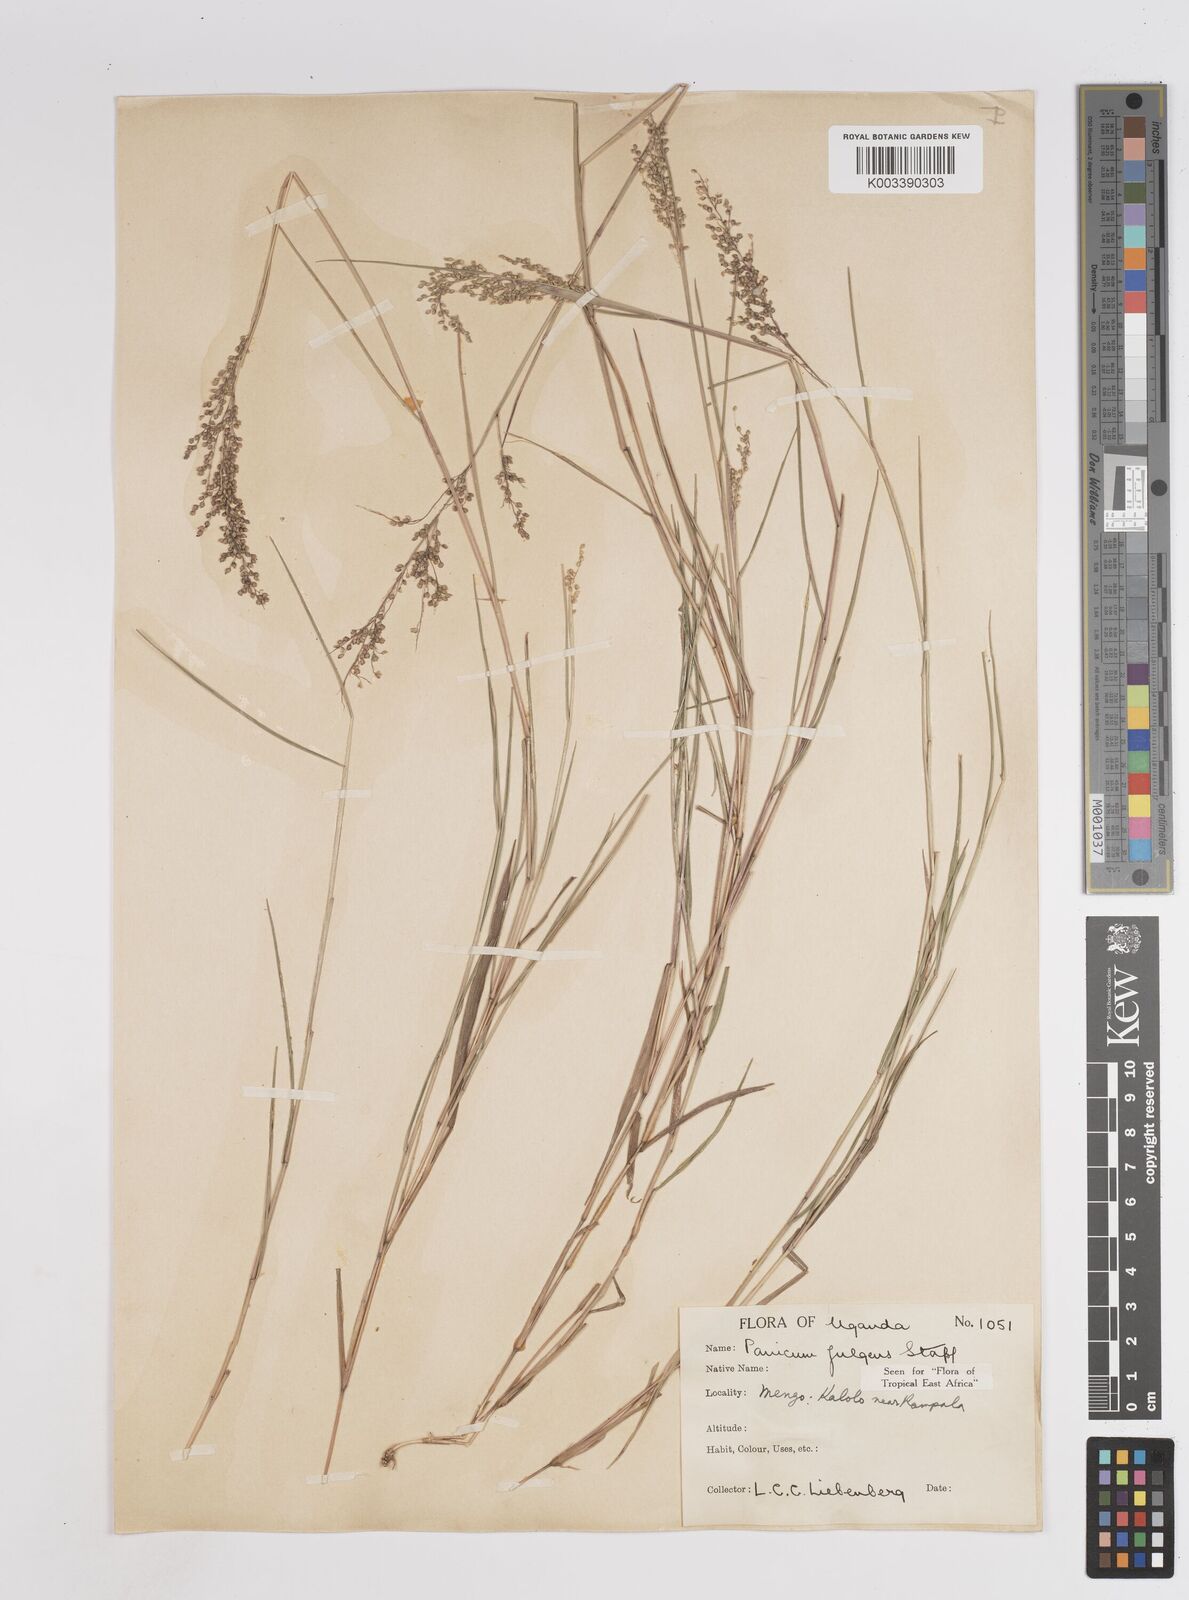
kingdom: Plantae
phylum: Tracheophyta
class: Liliopsida
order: Poales
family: Poaceae
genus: Trichanthecium
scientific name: Trichanthecium nervatum
